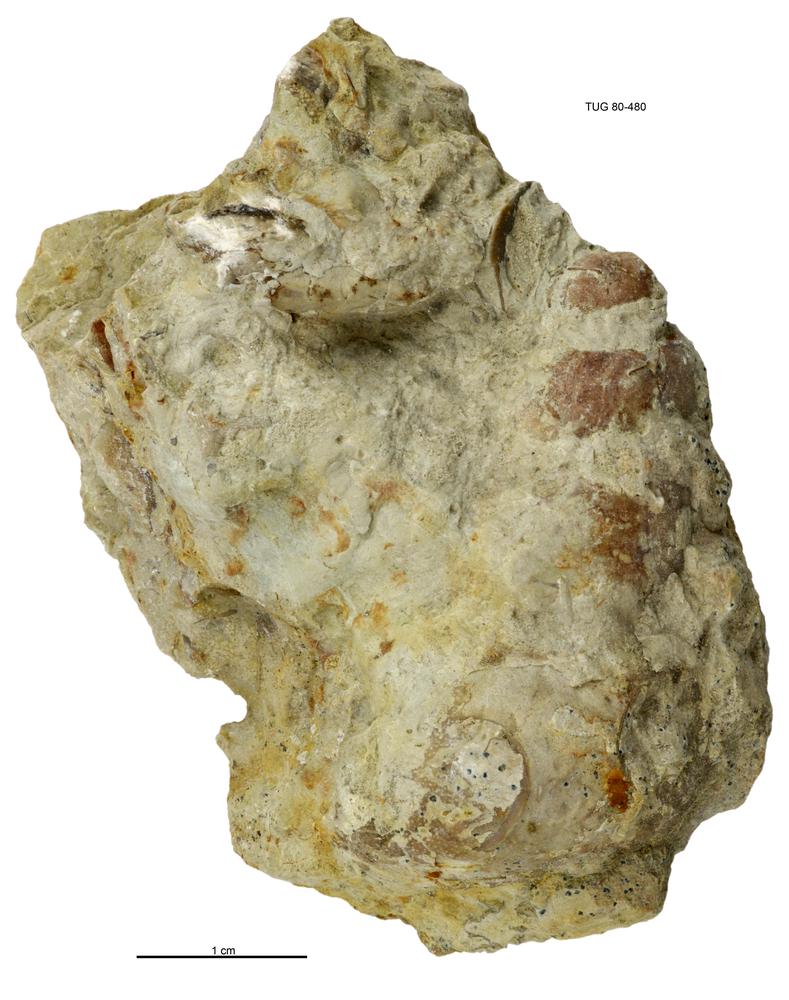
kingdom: Animalia
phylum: Mollusca
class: Gastropoda
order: Pleurotomariida
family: Murchisoniidae
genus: Murchisonia
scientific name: Murchisonia insignis
